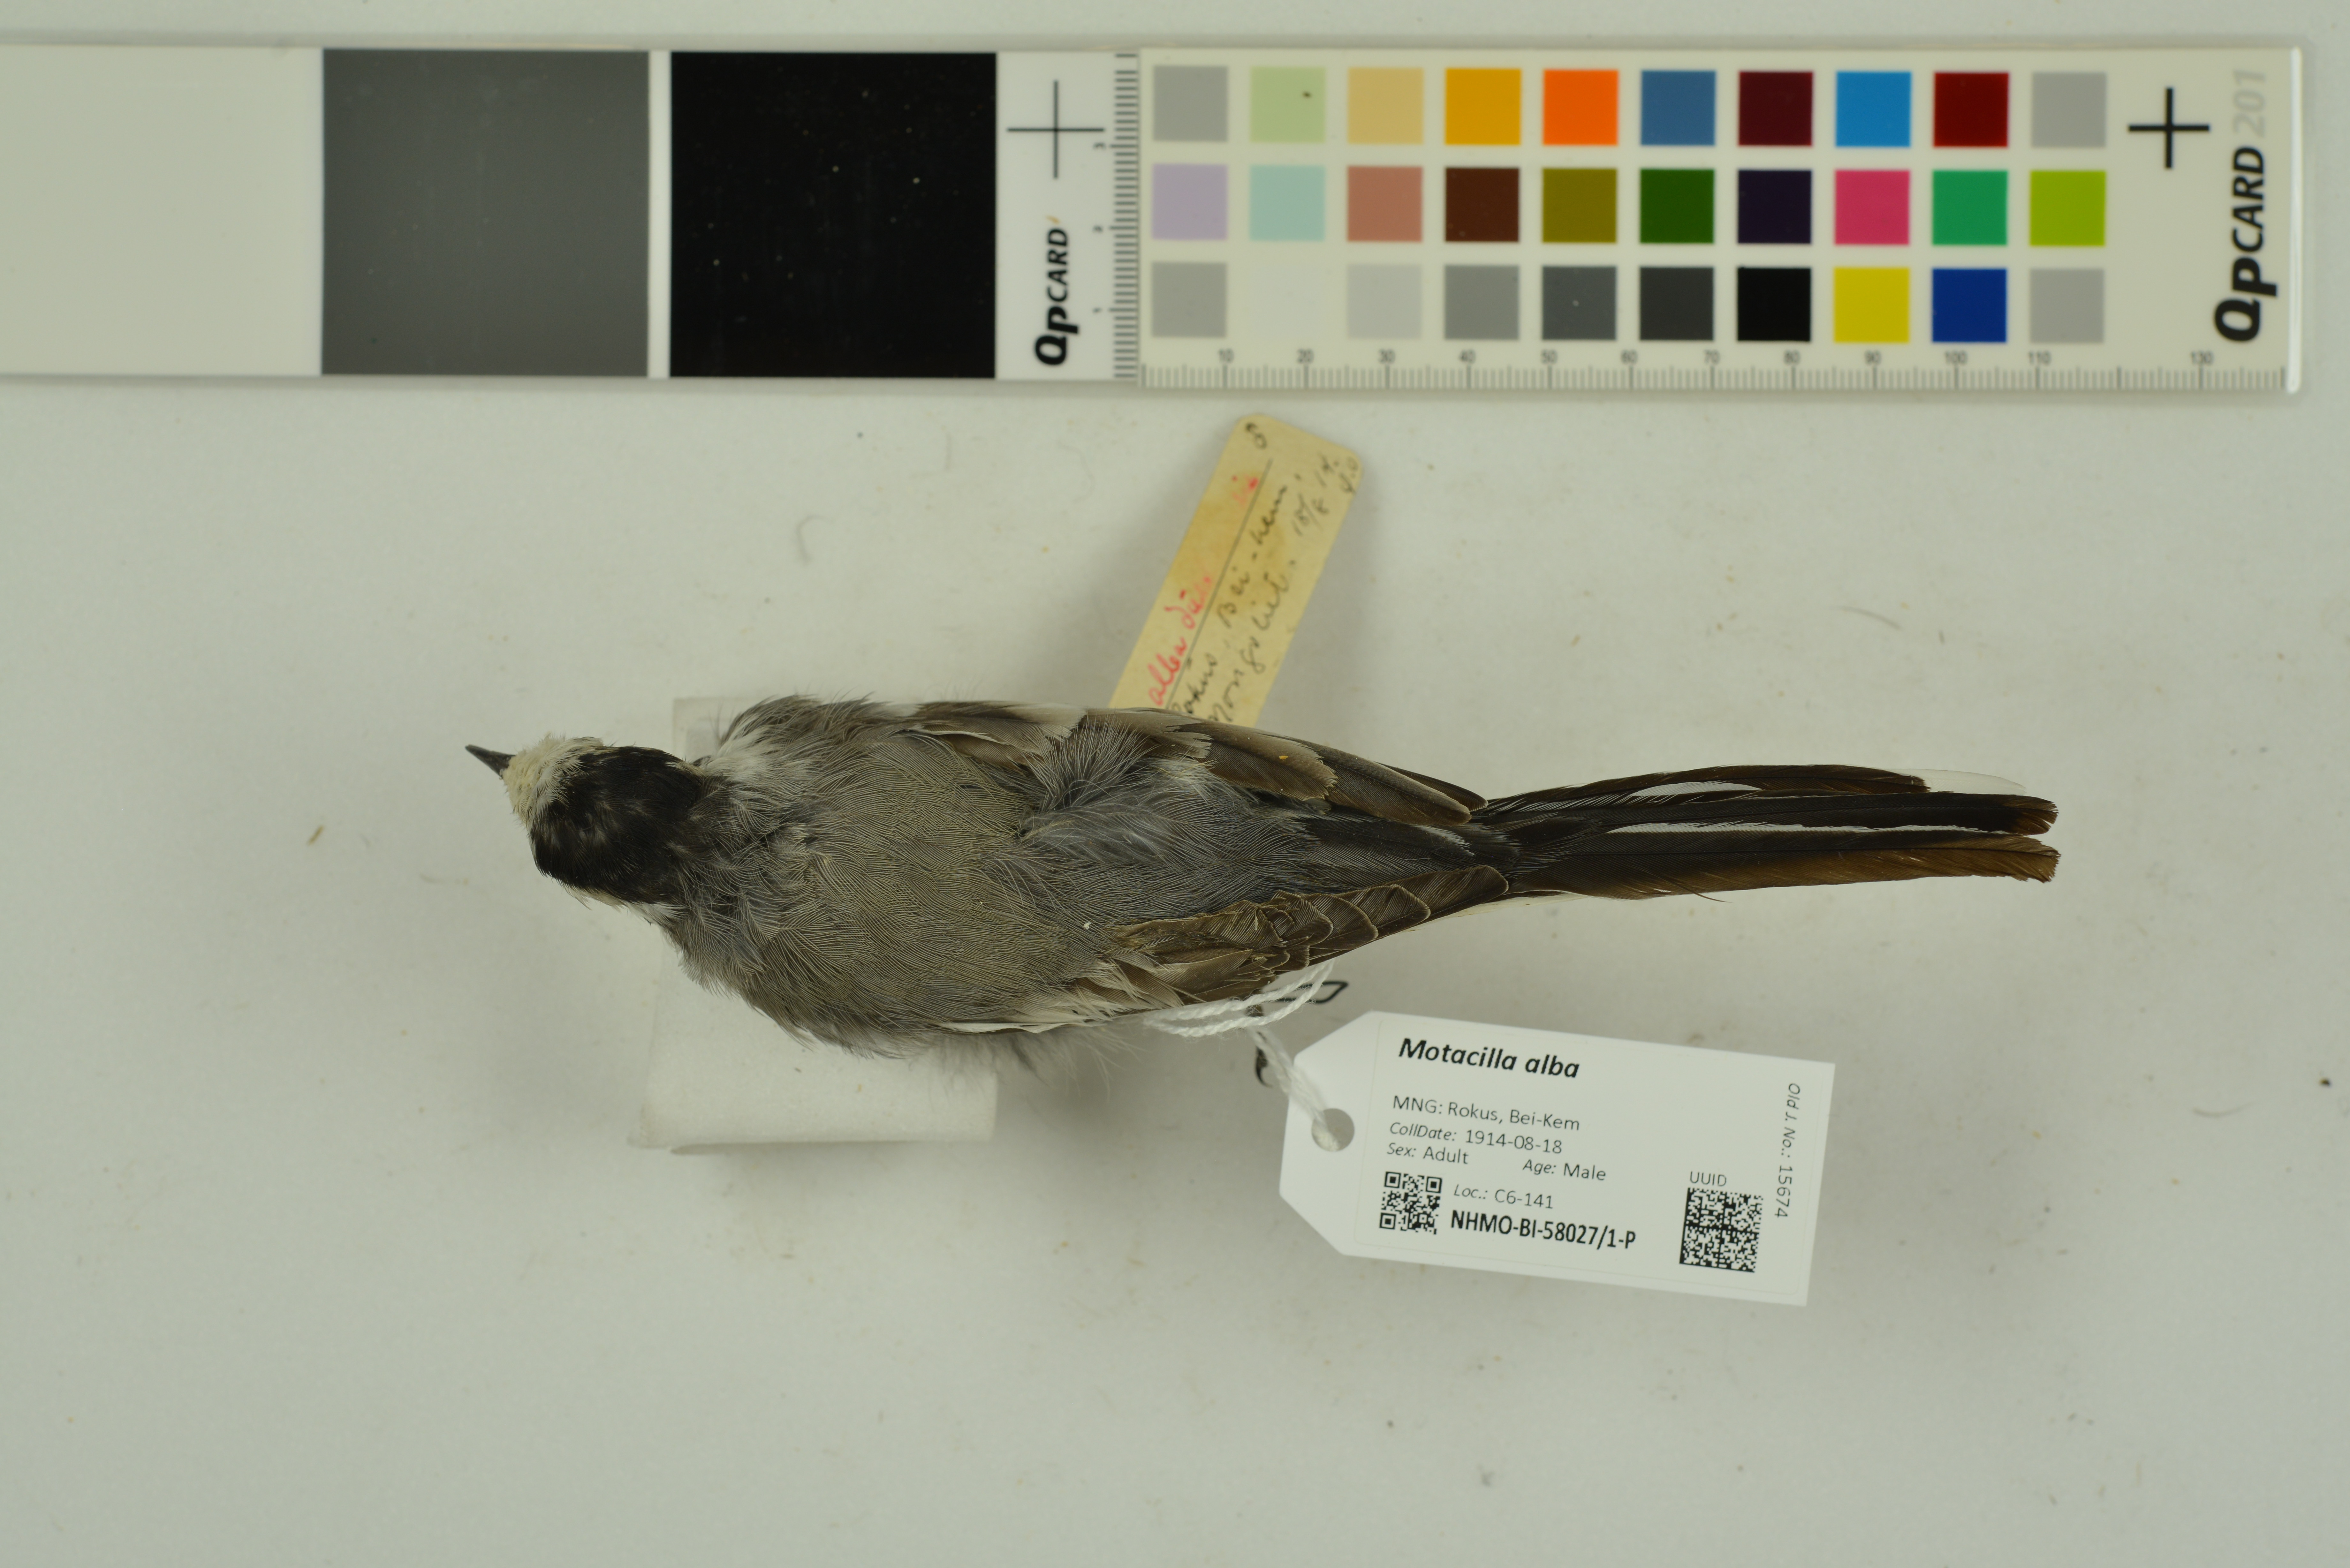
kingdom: Animalia
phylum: Chordata
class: Aves
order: Passeriformes
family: Motacillidae
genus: Motacilla
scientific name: Motacilla alba
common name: White wagtail
